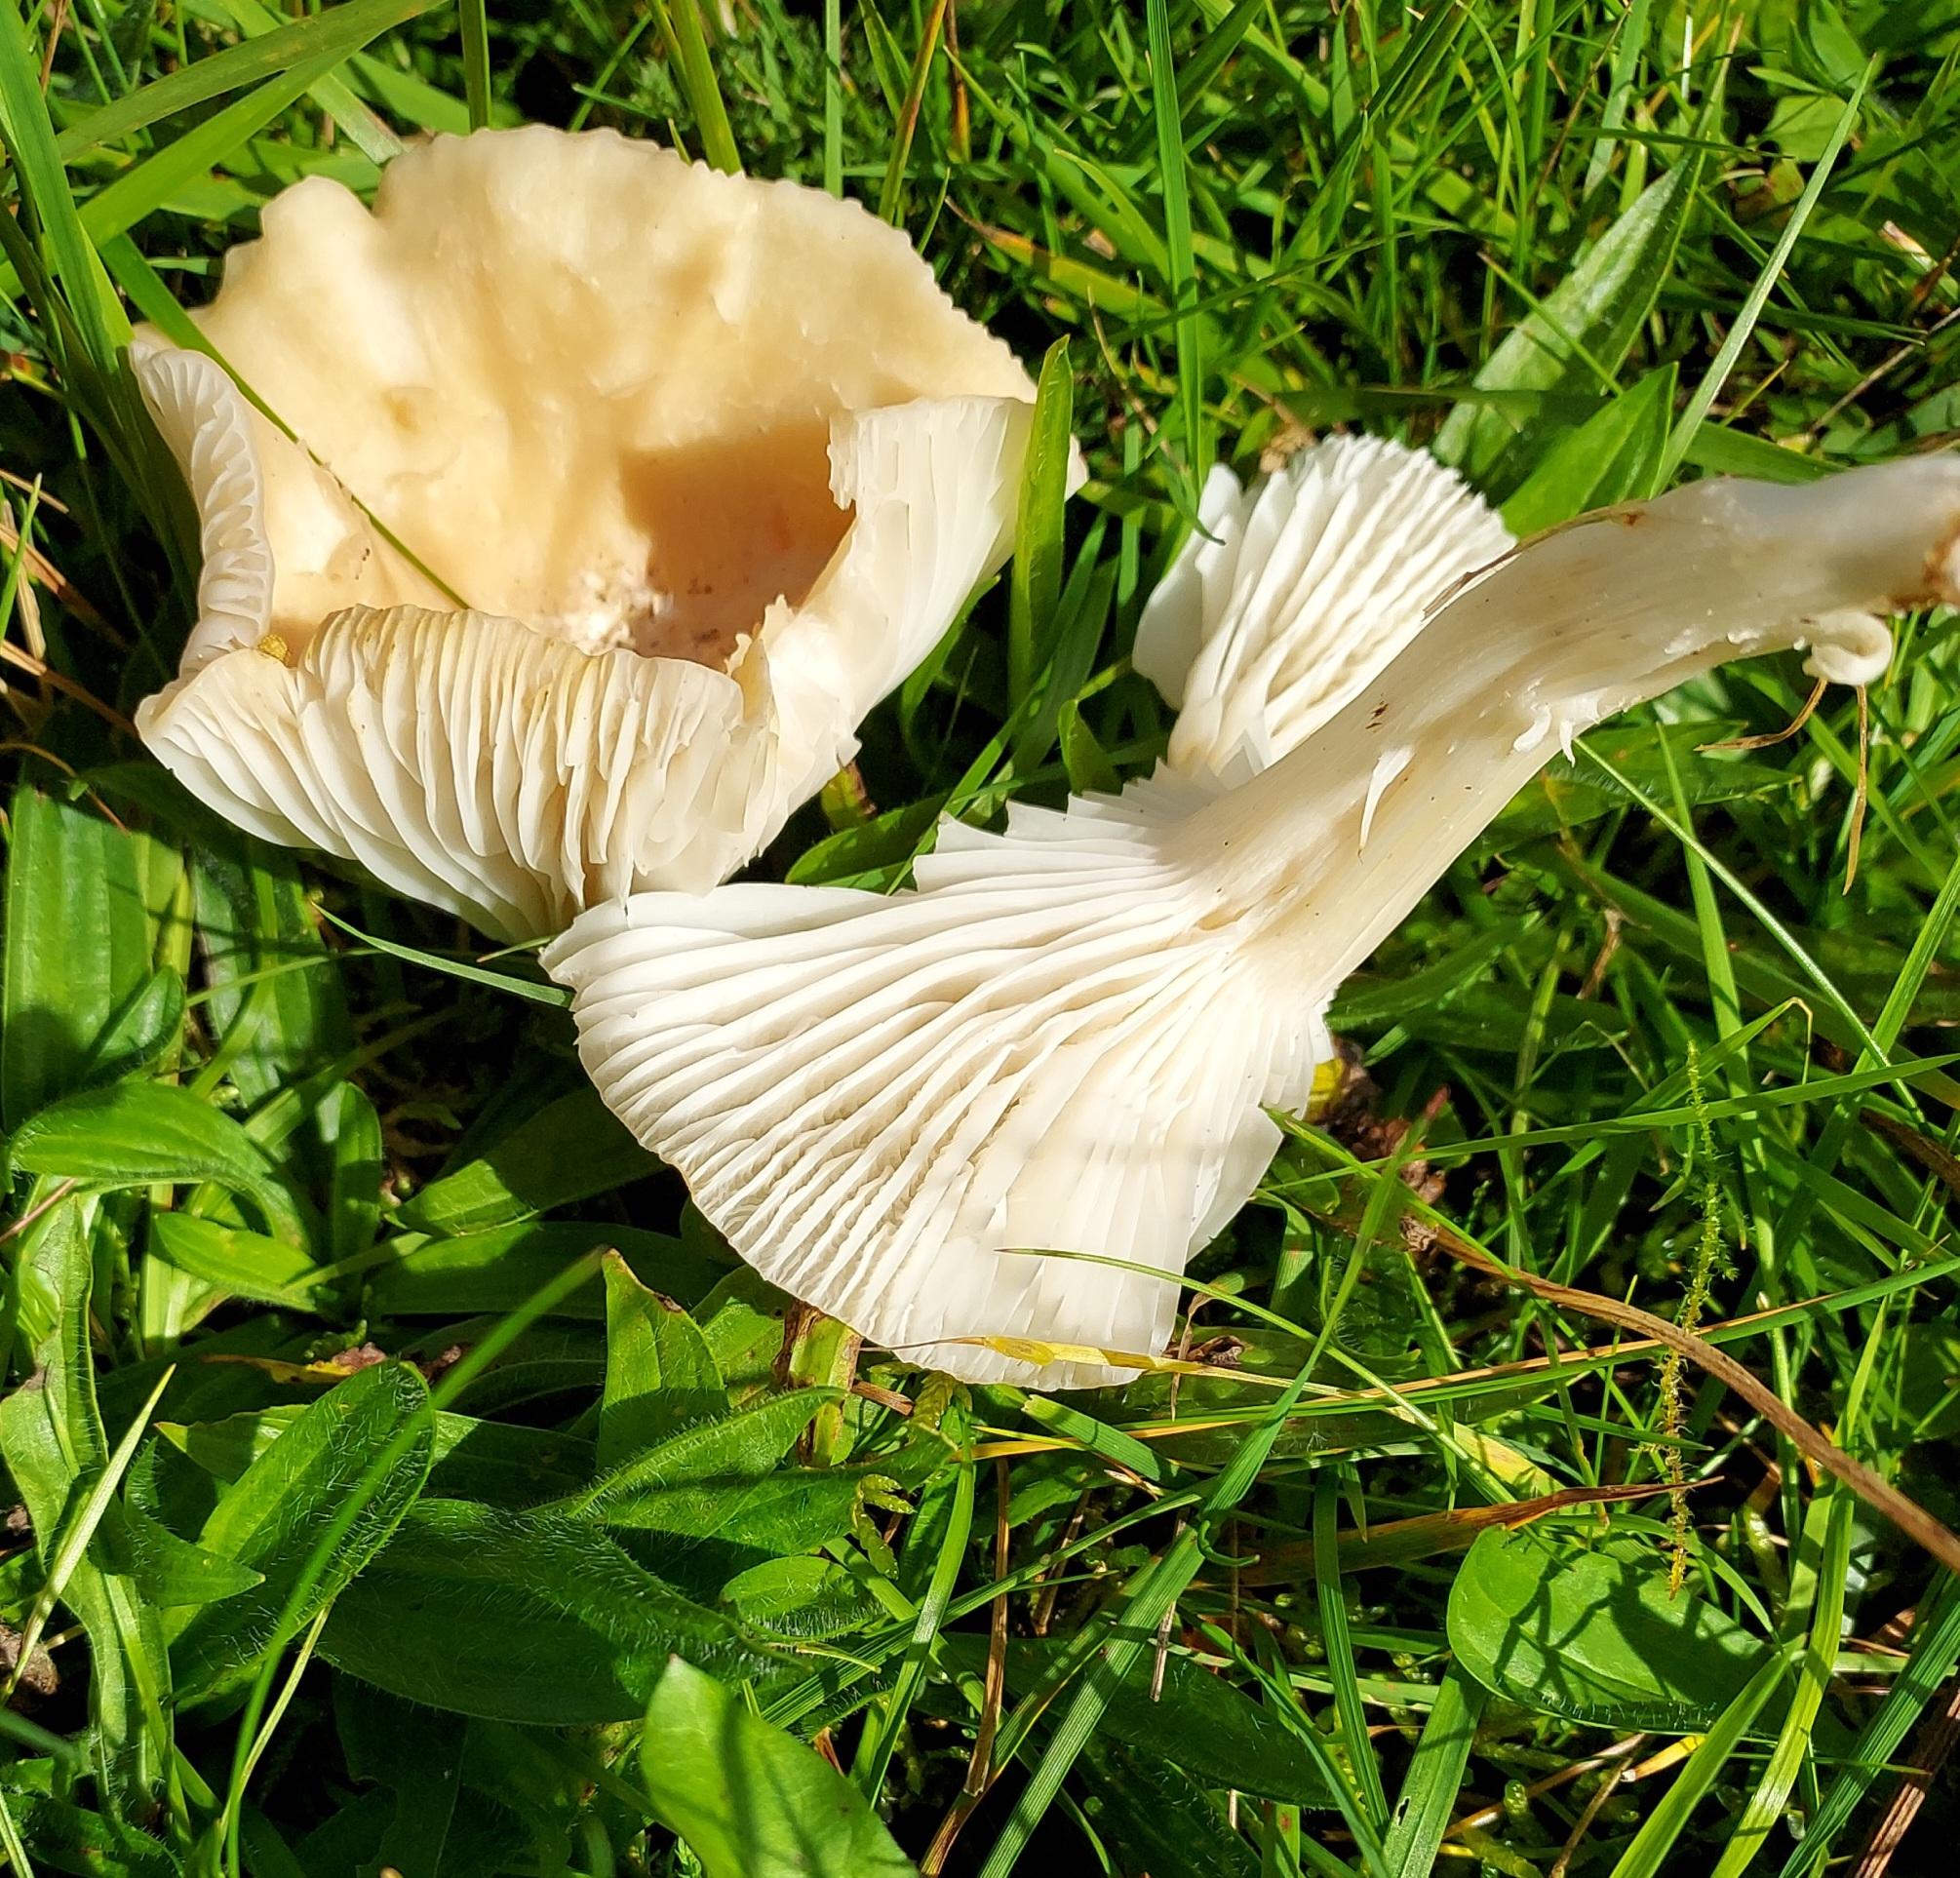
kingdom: Fungi
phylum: Basidiomycota
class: Agaricomycetes
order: Agaricales
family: Hygrophoraceae
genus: Cuphophyllus
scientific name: Cuphophyllus
